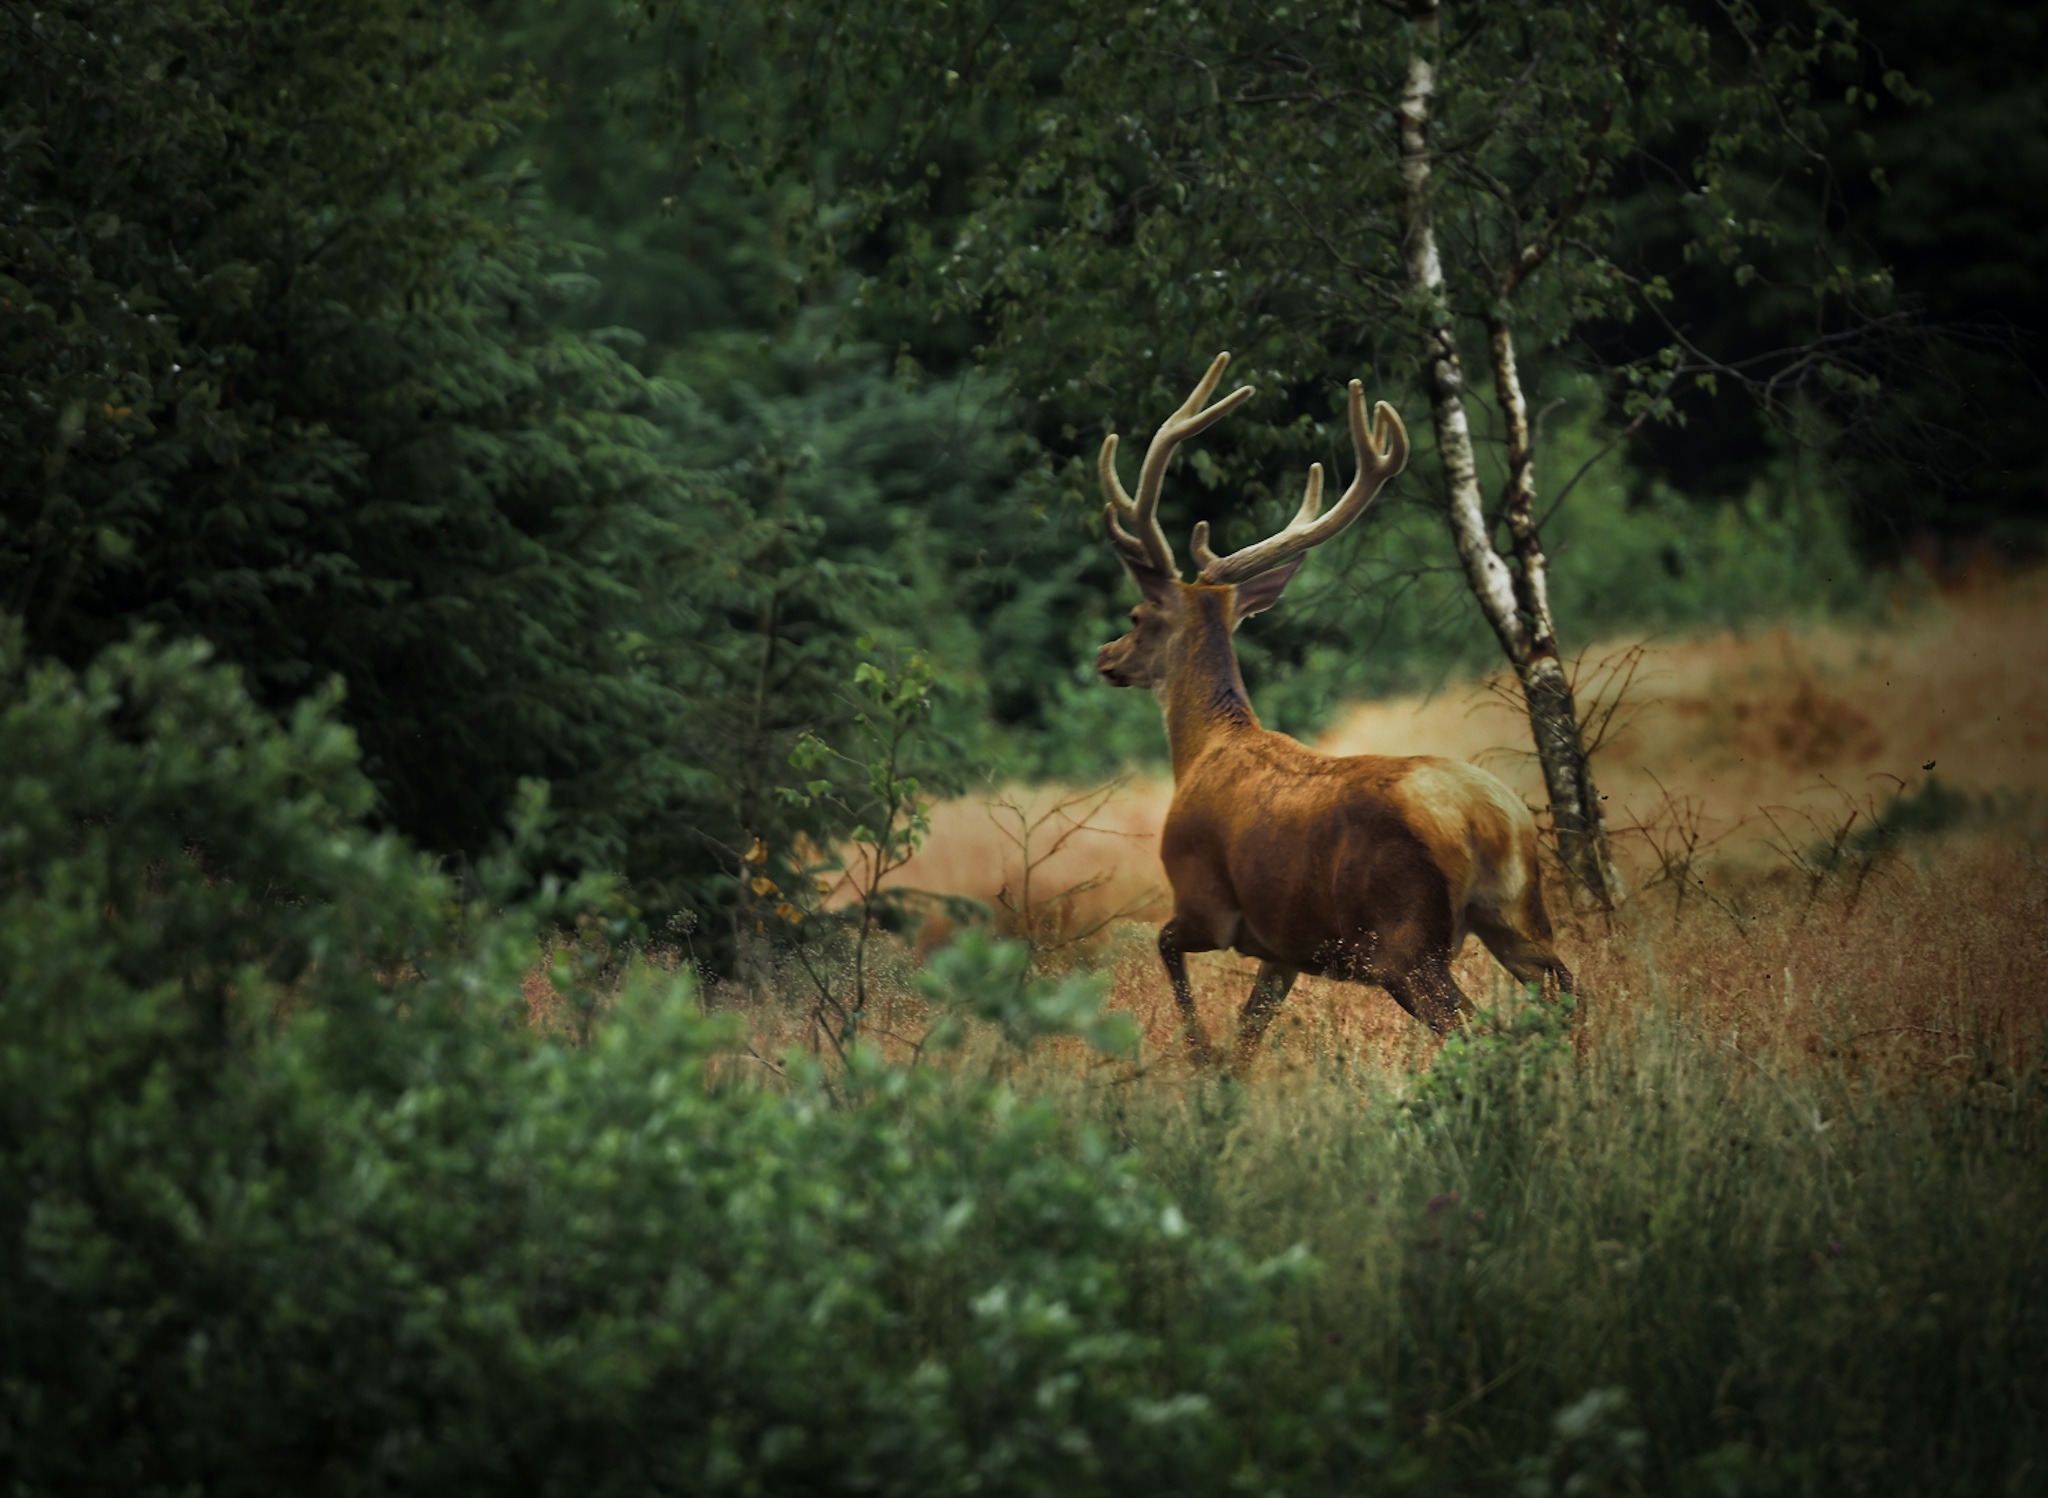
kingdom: Animalia
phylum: Chordata
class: Mammalia
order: Artiodactyla
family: Cervidae
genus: Cervus
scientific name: Cervus elaphus
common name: Krondyr
